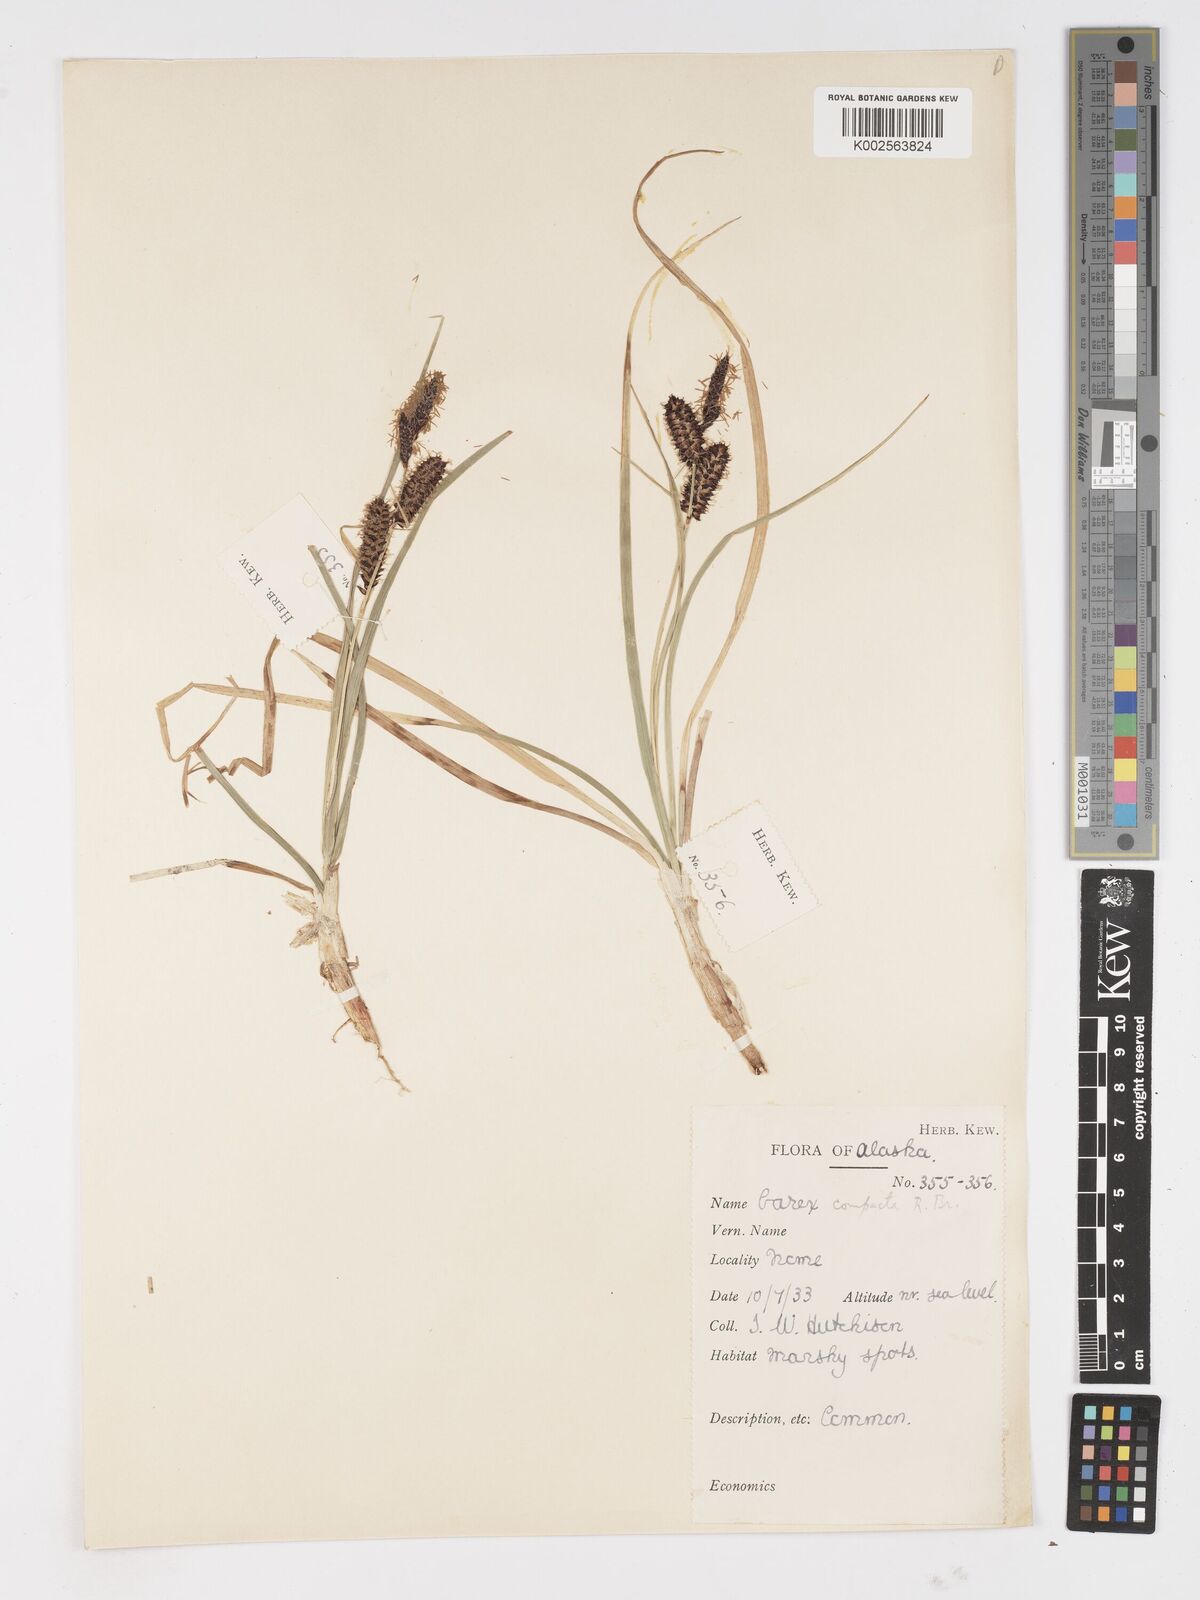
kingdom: Plantae
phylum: Tracheophyta
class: Liliopsida
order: Poales
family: Cyperaceae
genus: Carex
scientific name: Carex membranacea
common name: Fragile sedge
